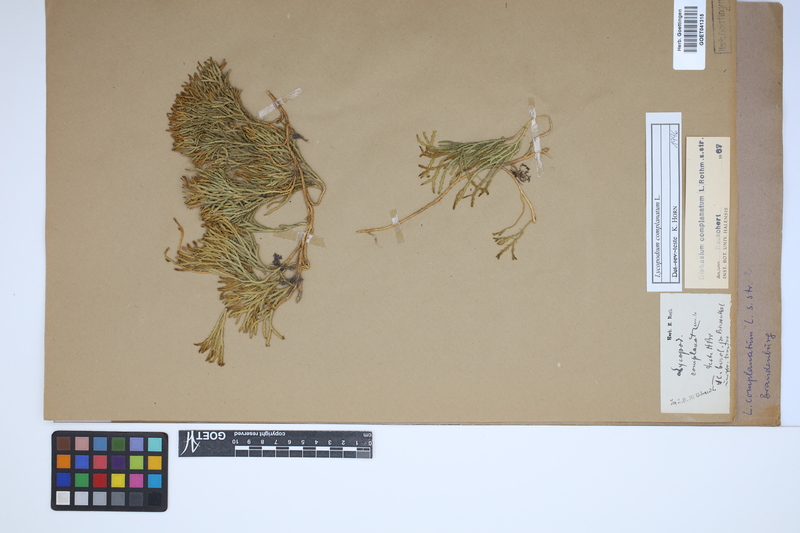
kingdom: Plantae
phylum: Tracheophyta
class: Lycopodiopsida
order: Lycopodiales
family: Lycopodiaceae
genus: Diphasiastrum
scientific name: Diphasiastrum complanatum
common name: Northern running-pine
